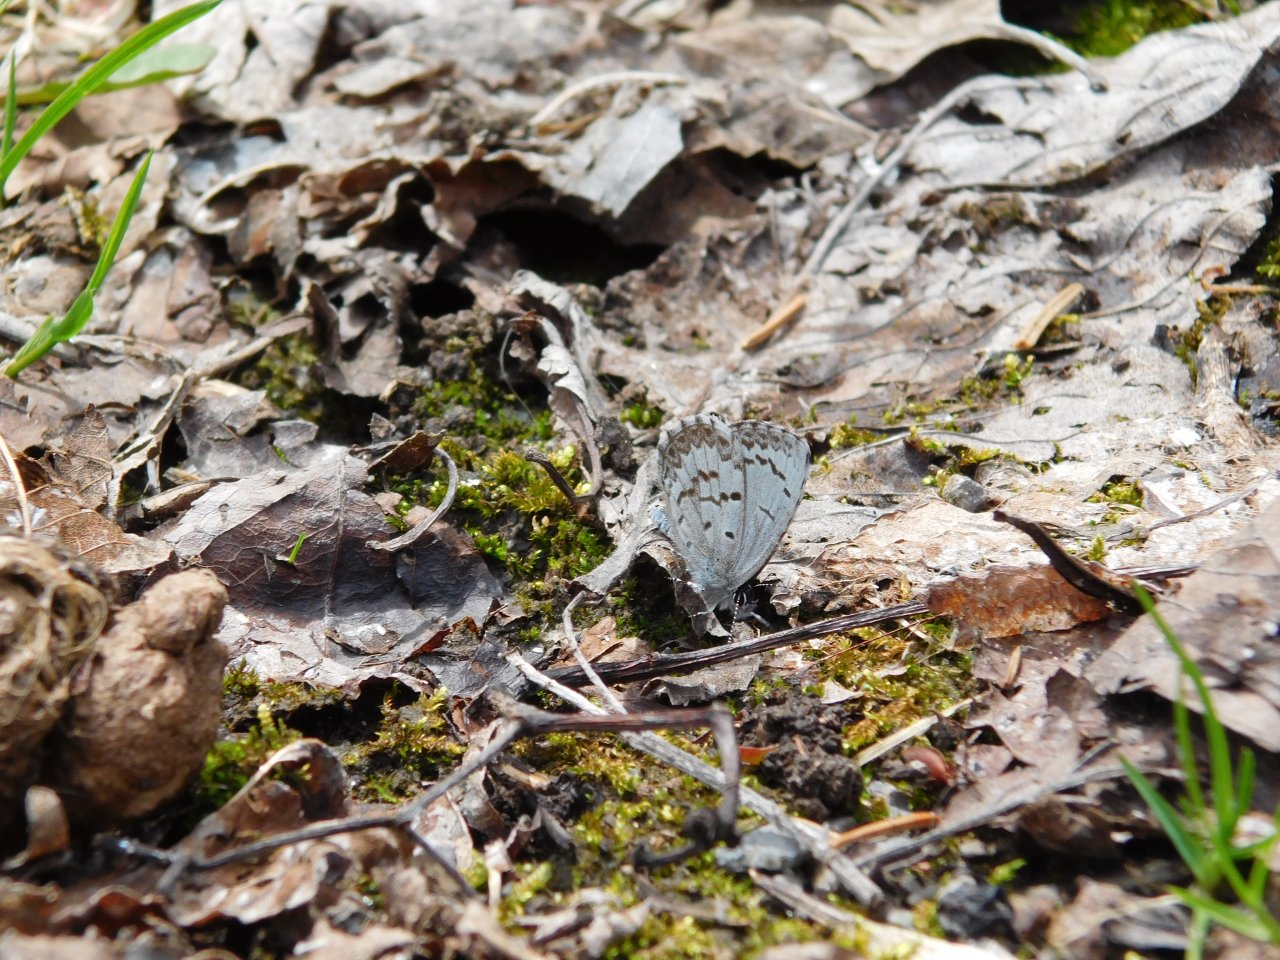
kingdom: Animalia
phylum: Arthropoda
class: Insecta
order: Lepidoptera
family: Lycaenidae
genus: Celastrina
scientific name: Celastrina lucia
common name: Northern Spring Azure
